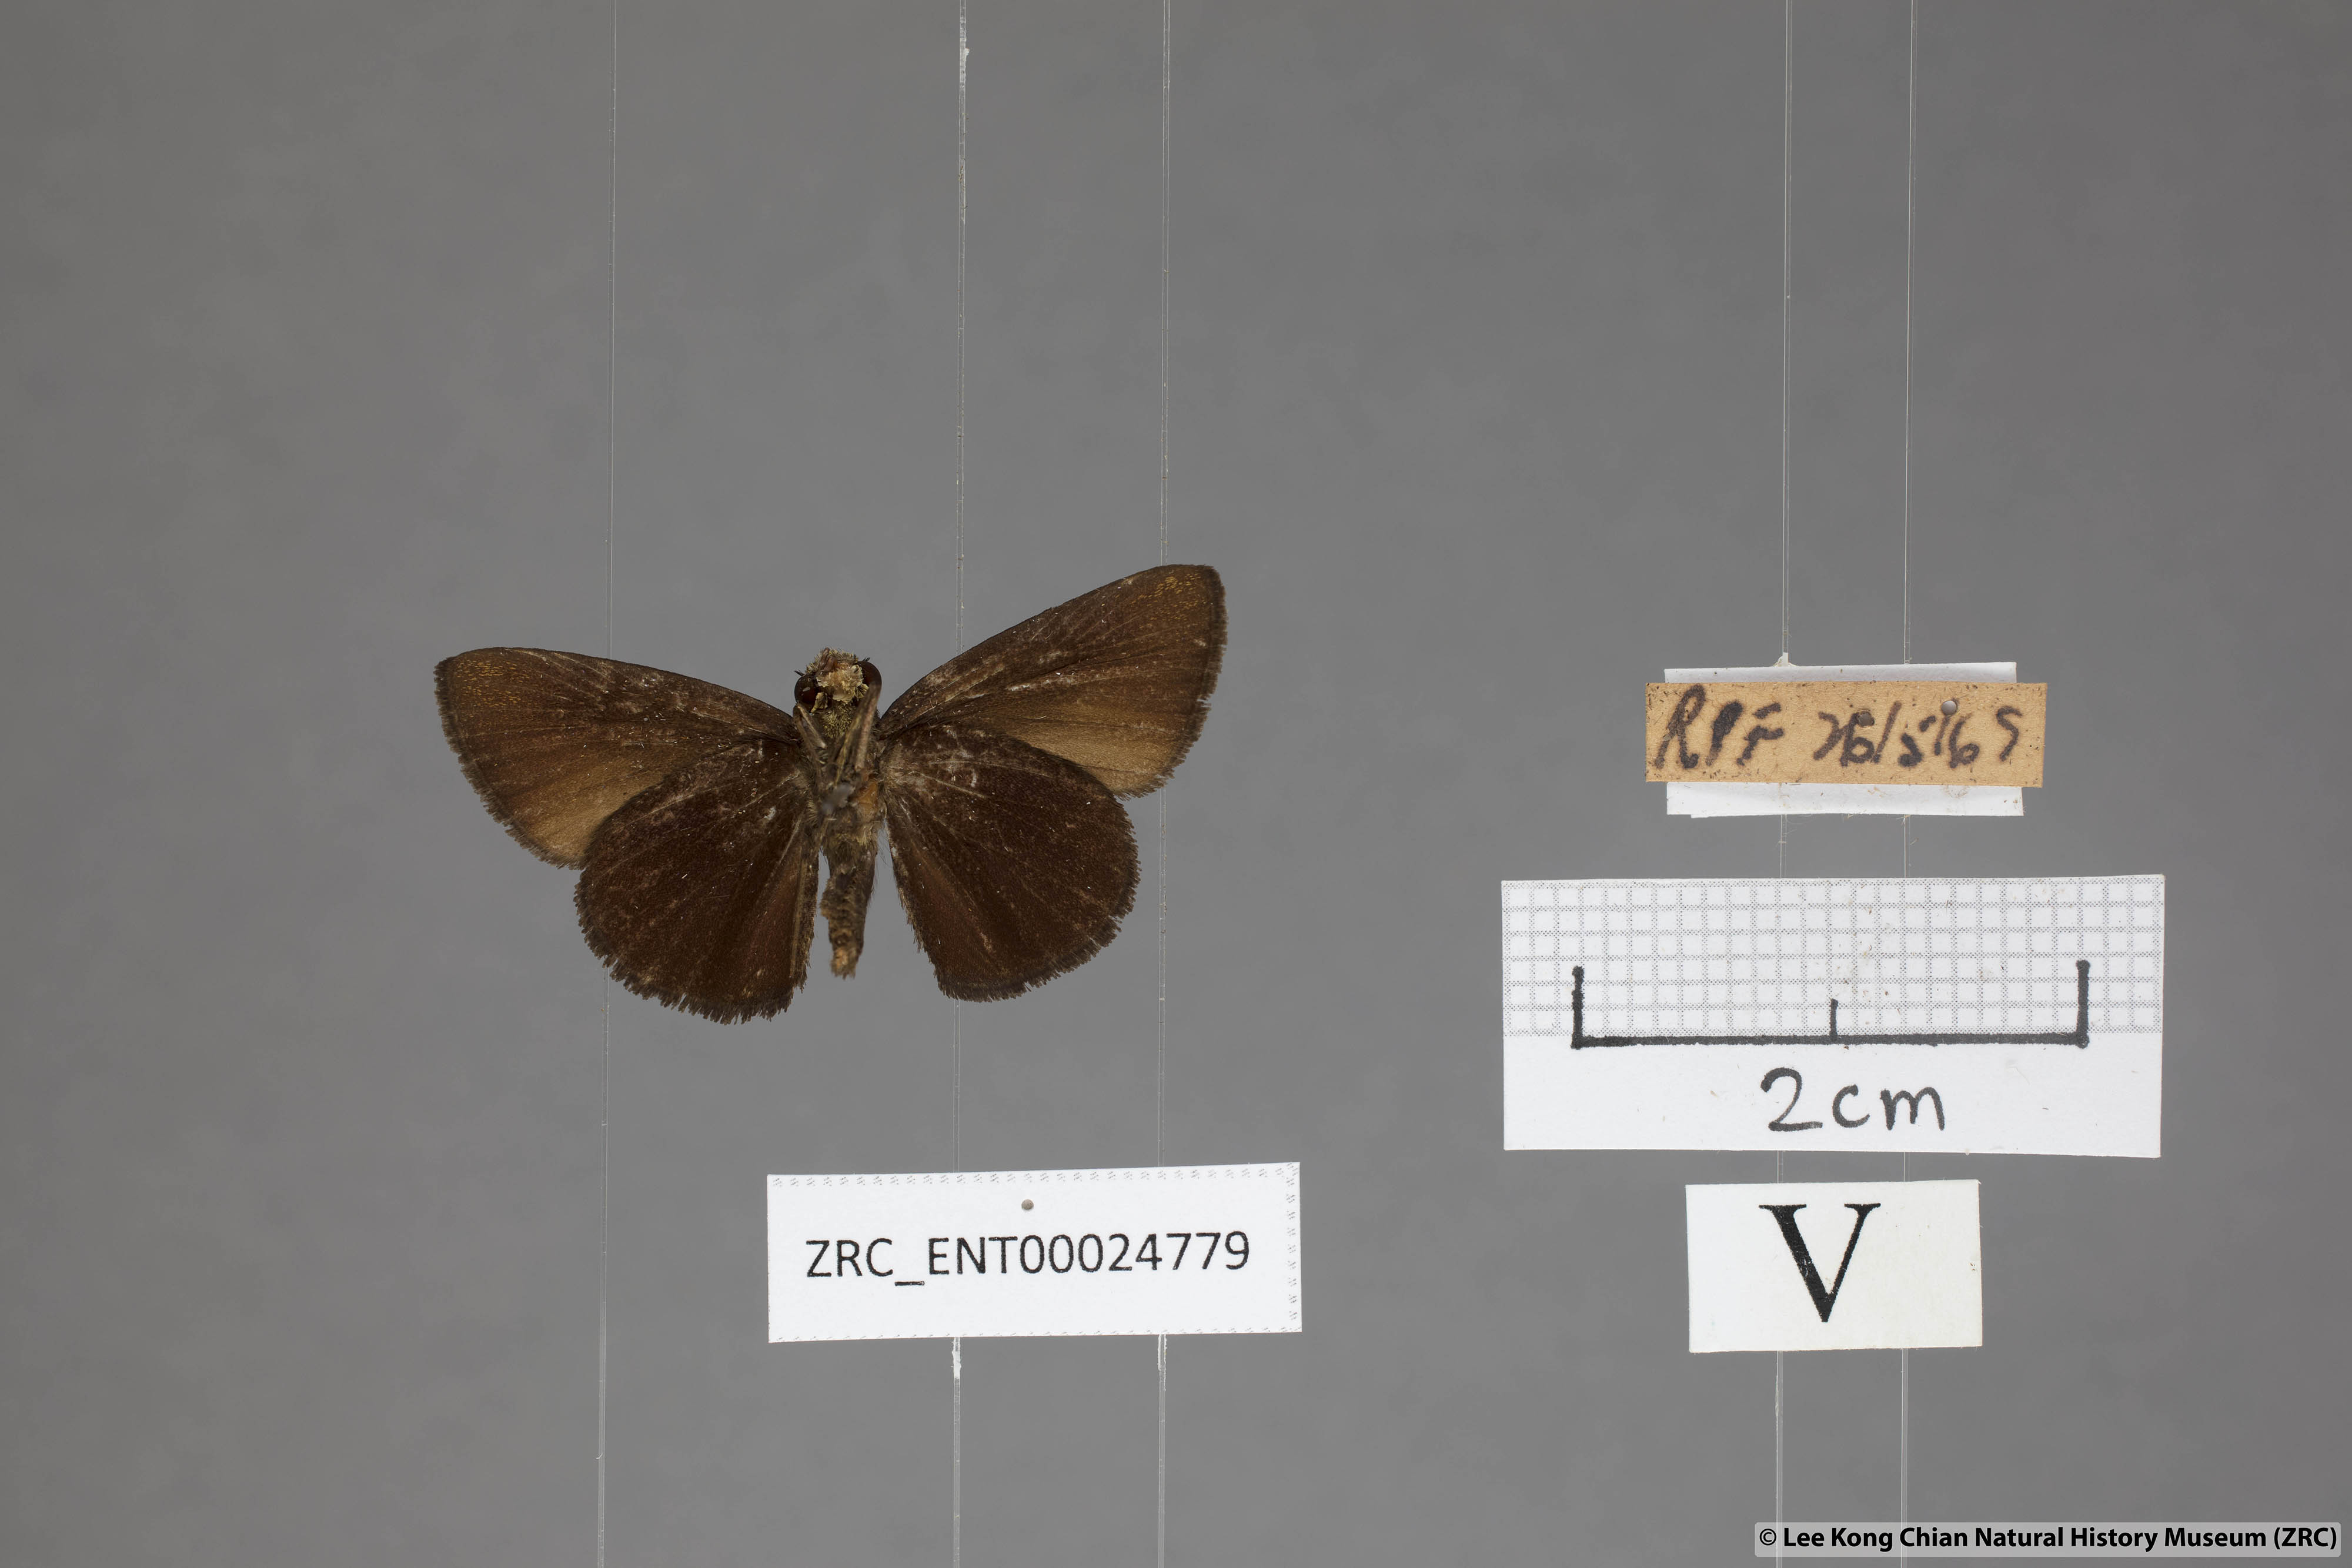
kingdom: Animalia
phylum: Arthropoda
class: Insecta
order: Lepidoptera
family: Hesperiidae
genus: Iambrix
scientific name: Iambrix
